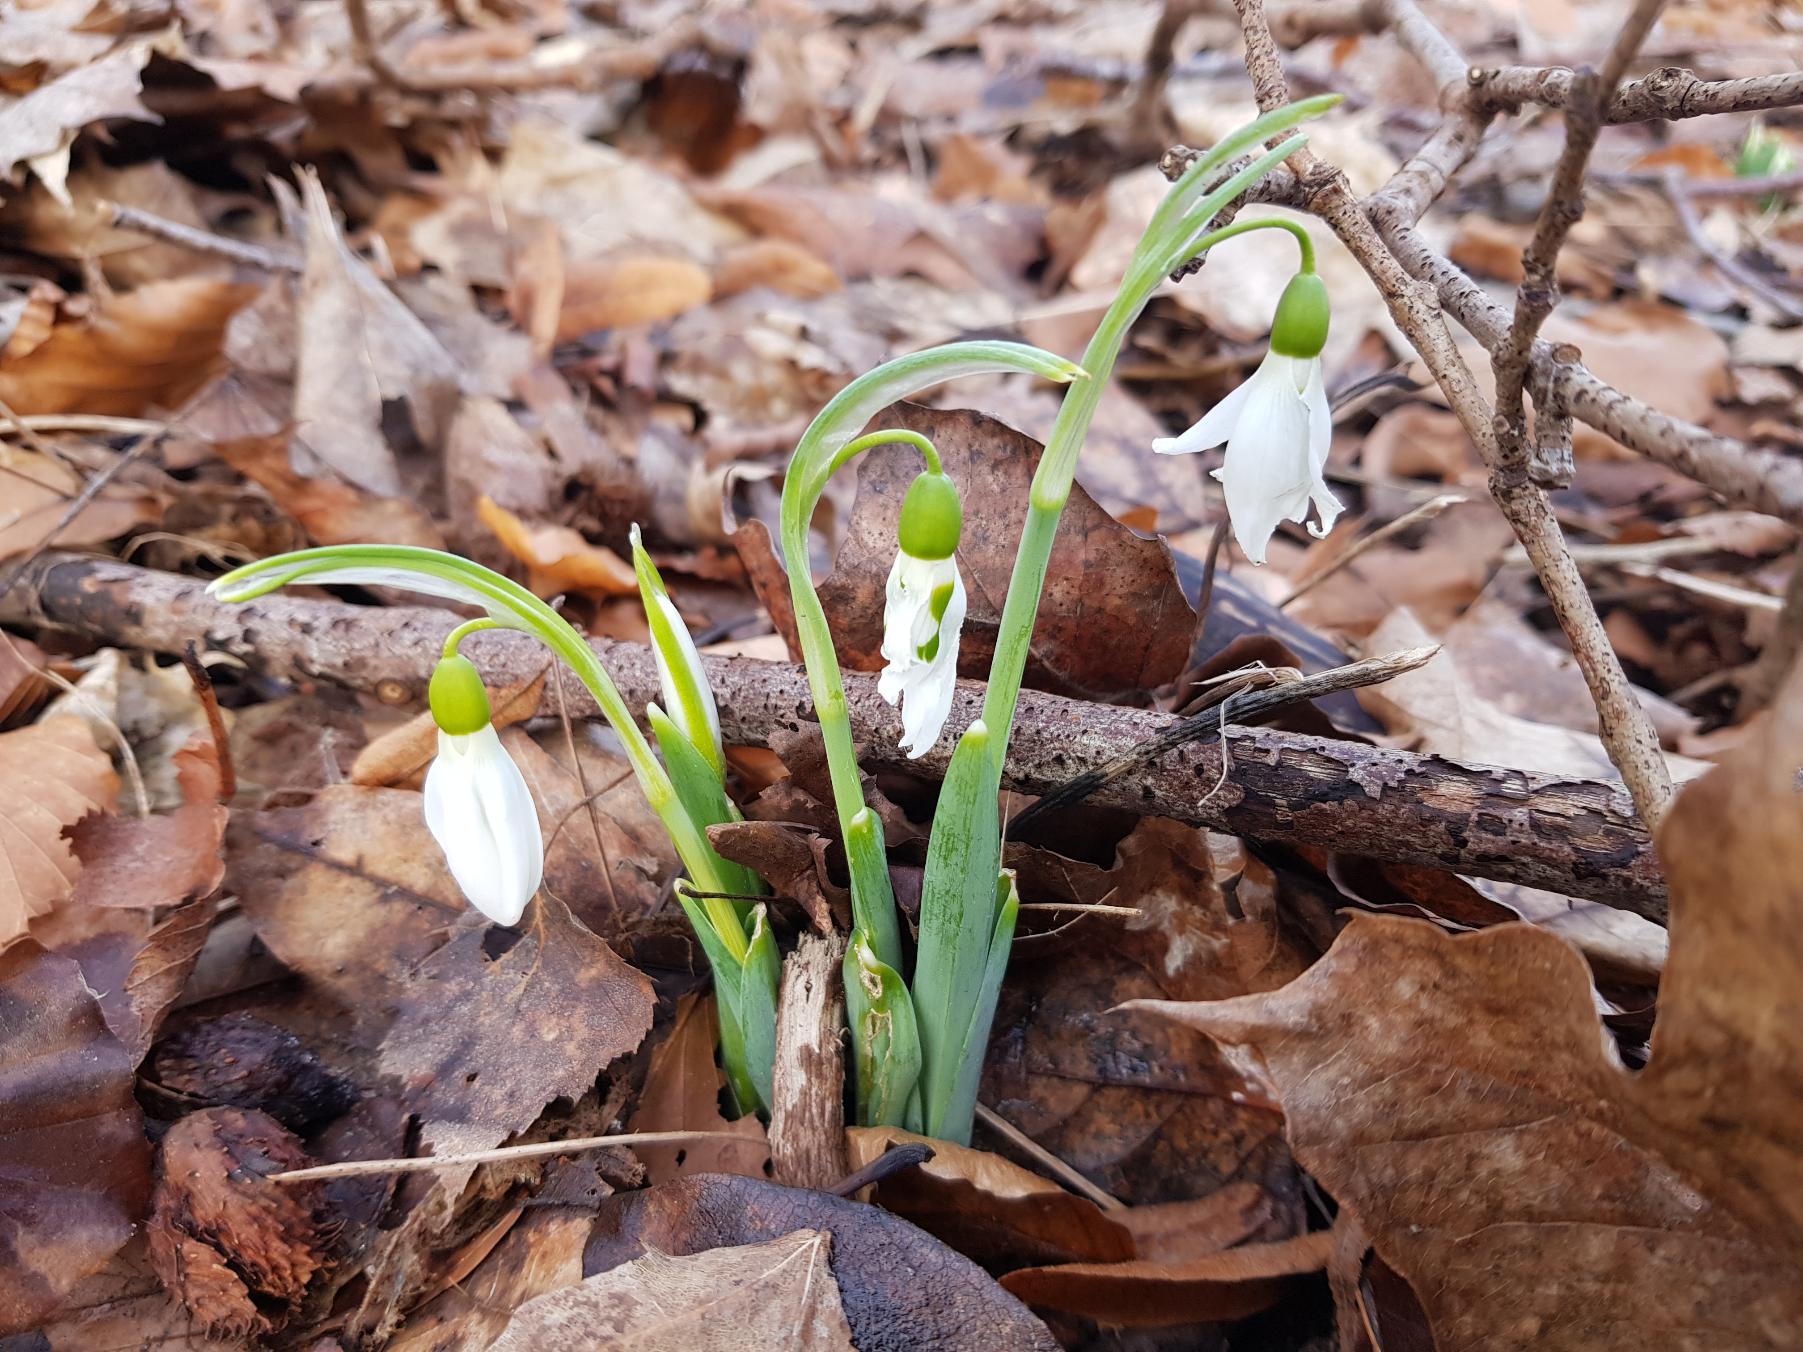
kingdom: Plantae
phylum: Tracheophyta
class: Liliopsida
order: Asparagales
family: Amaryllidaceae
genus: Galanthus
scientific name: Galanthus elwesii
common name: Tyrkisk vintergæk
